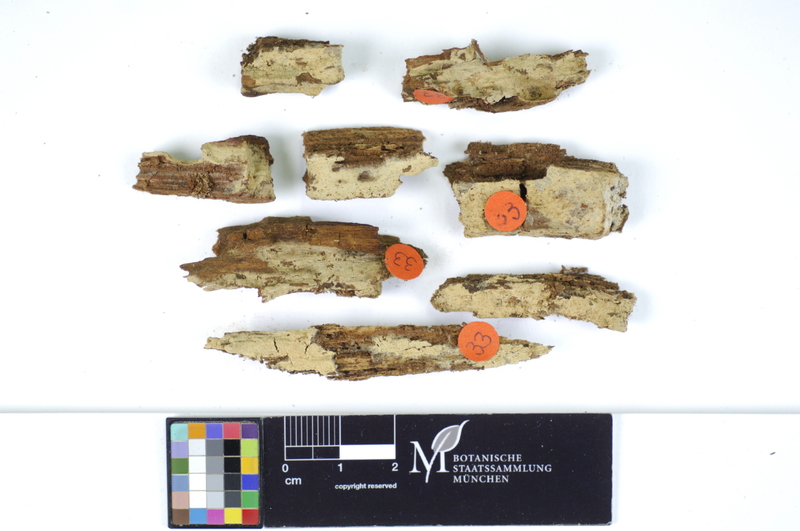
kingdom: Fungi
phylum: Basidiomycota
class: Agaricomycetes
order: Hymenochaetales
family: Hyphodontiaceae
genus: Hyphodontia
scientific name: Hyphodontia abieticola
